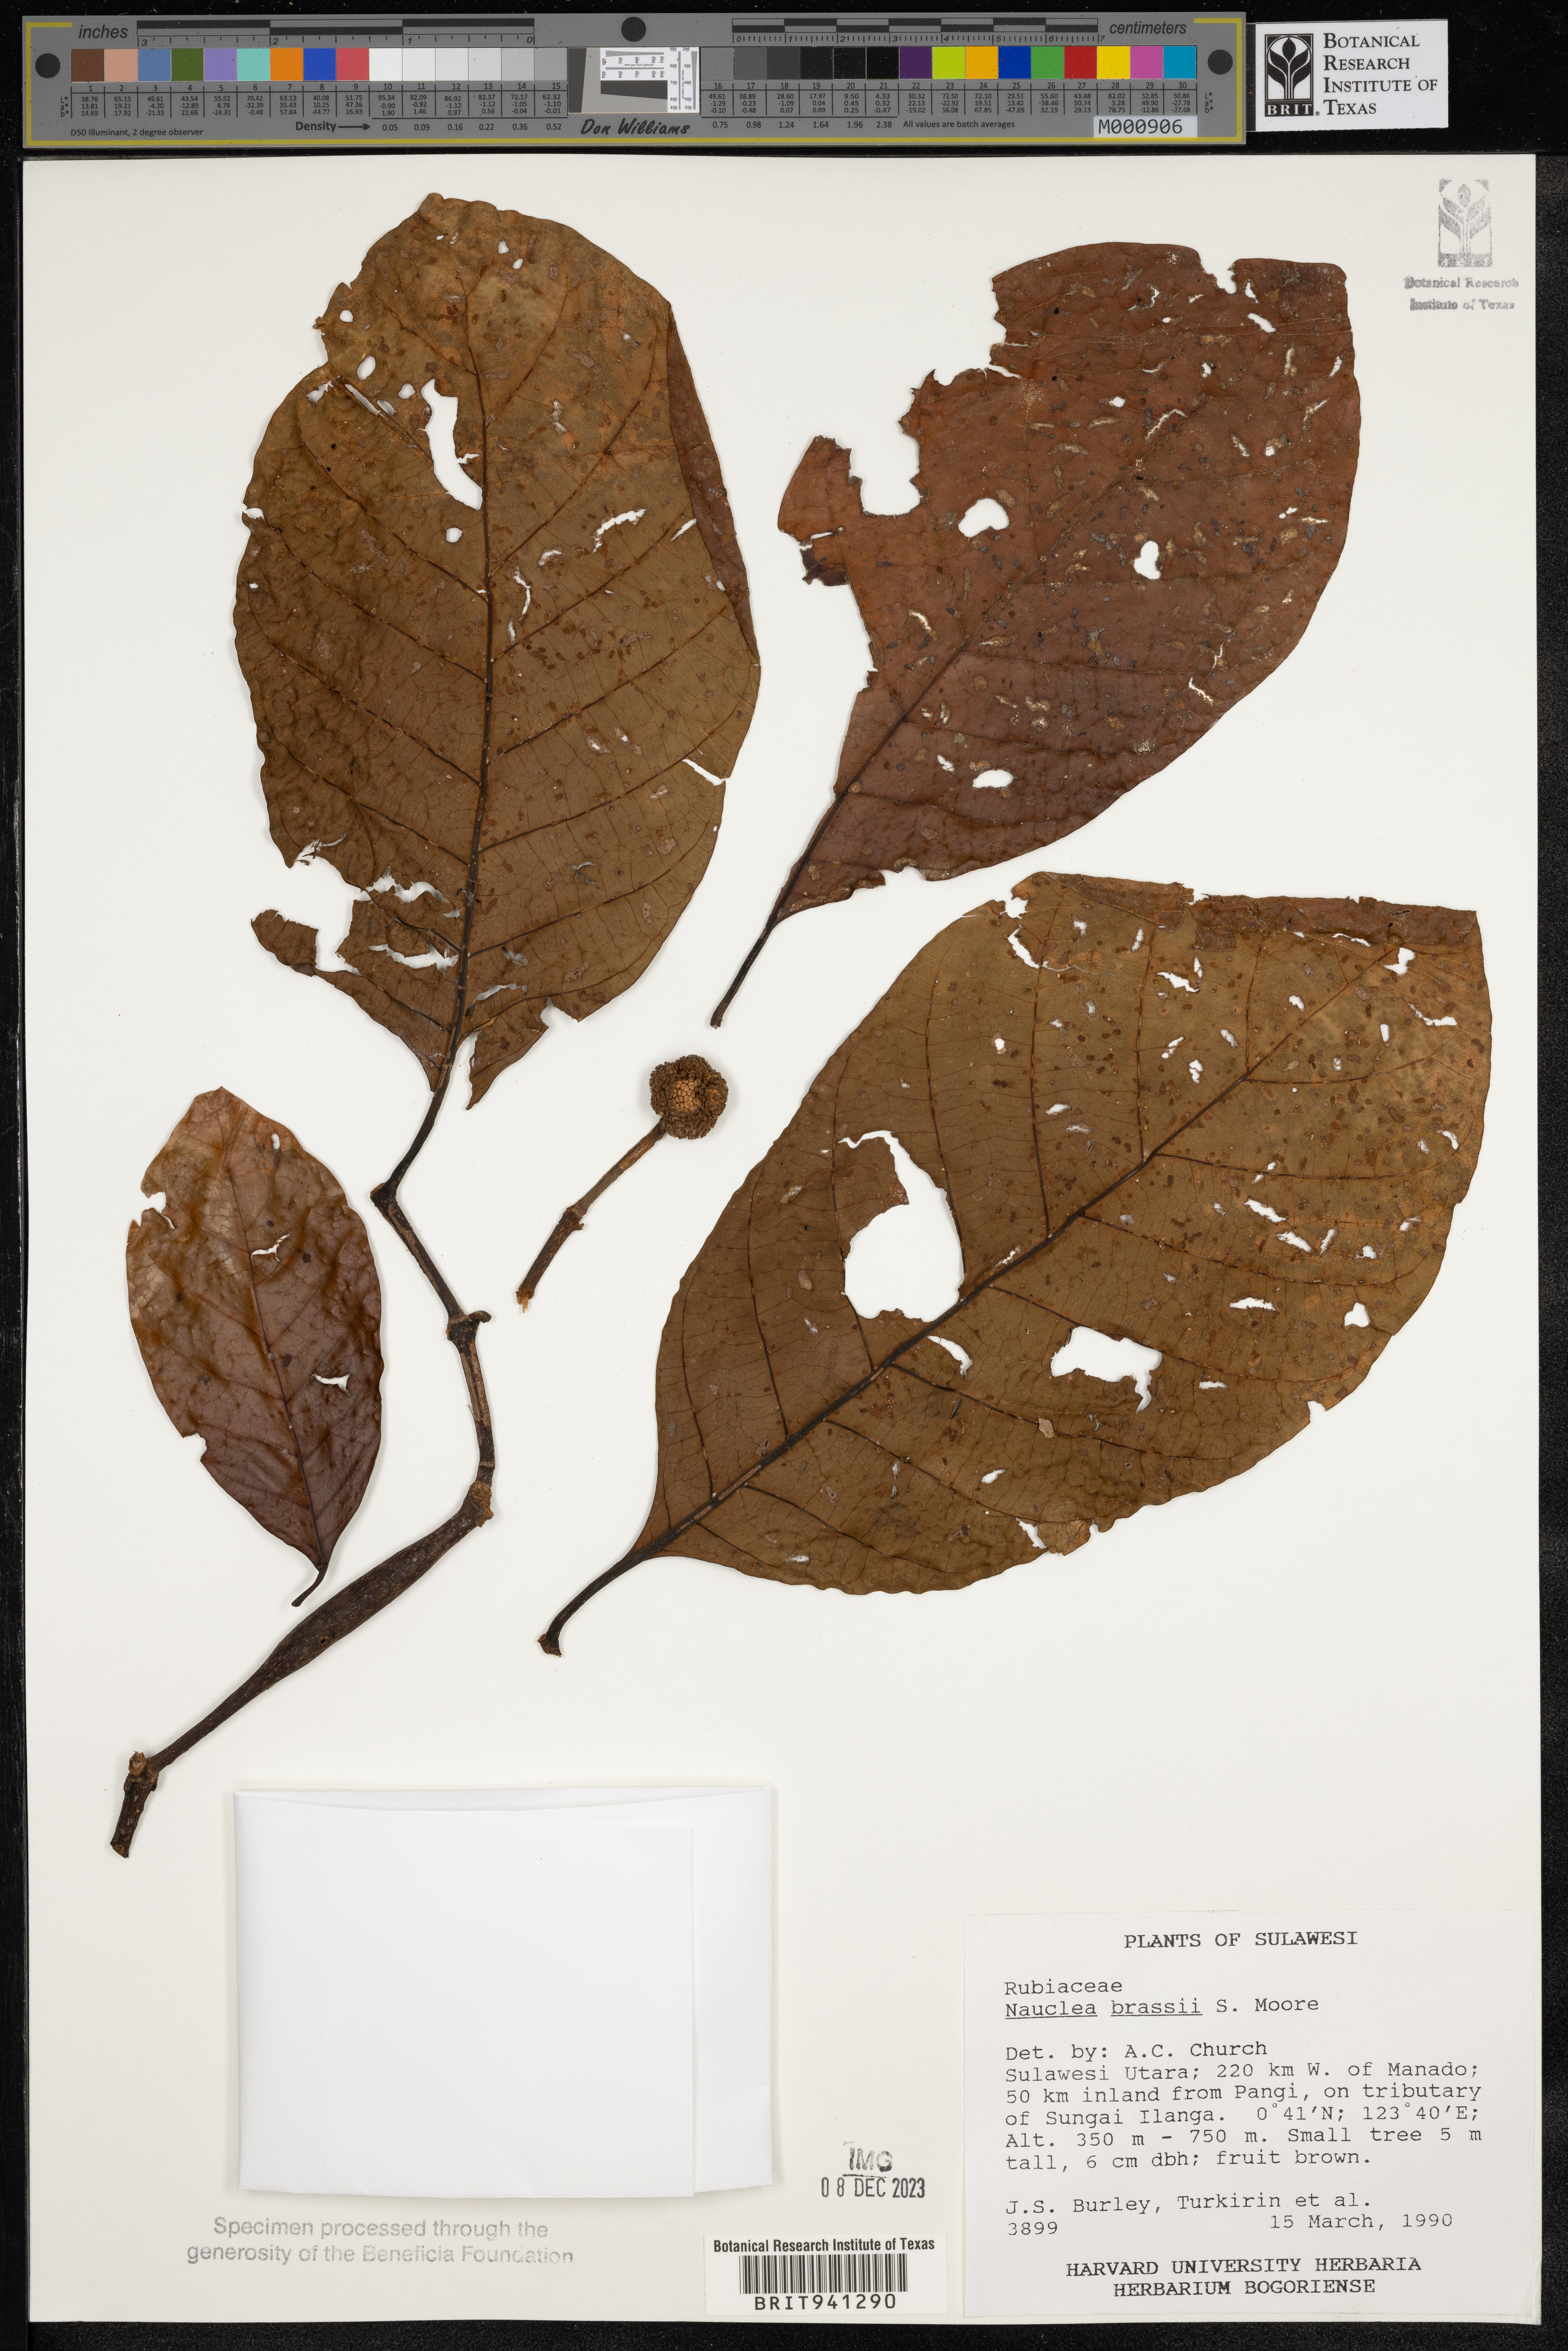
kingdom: Plantae
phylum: Tracheophyta
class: Magnoliopsida
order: Gentianales
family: Rubiaceae
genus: Nauclea
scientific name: Nauclea
